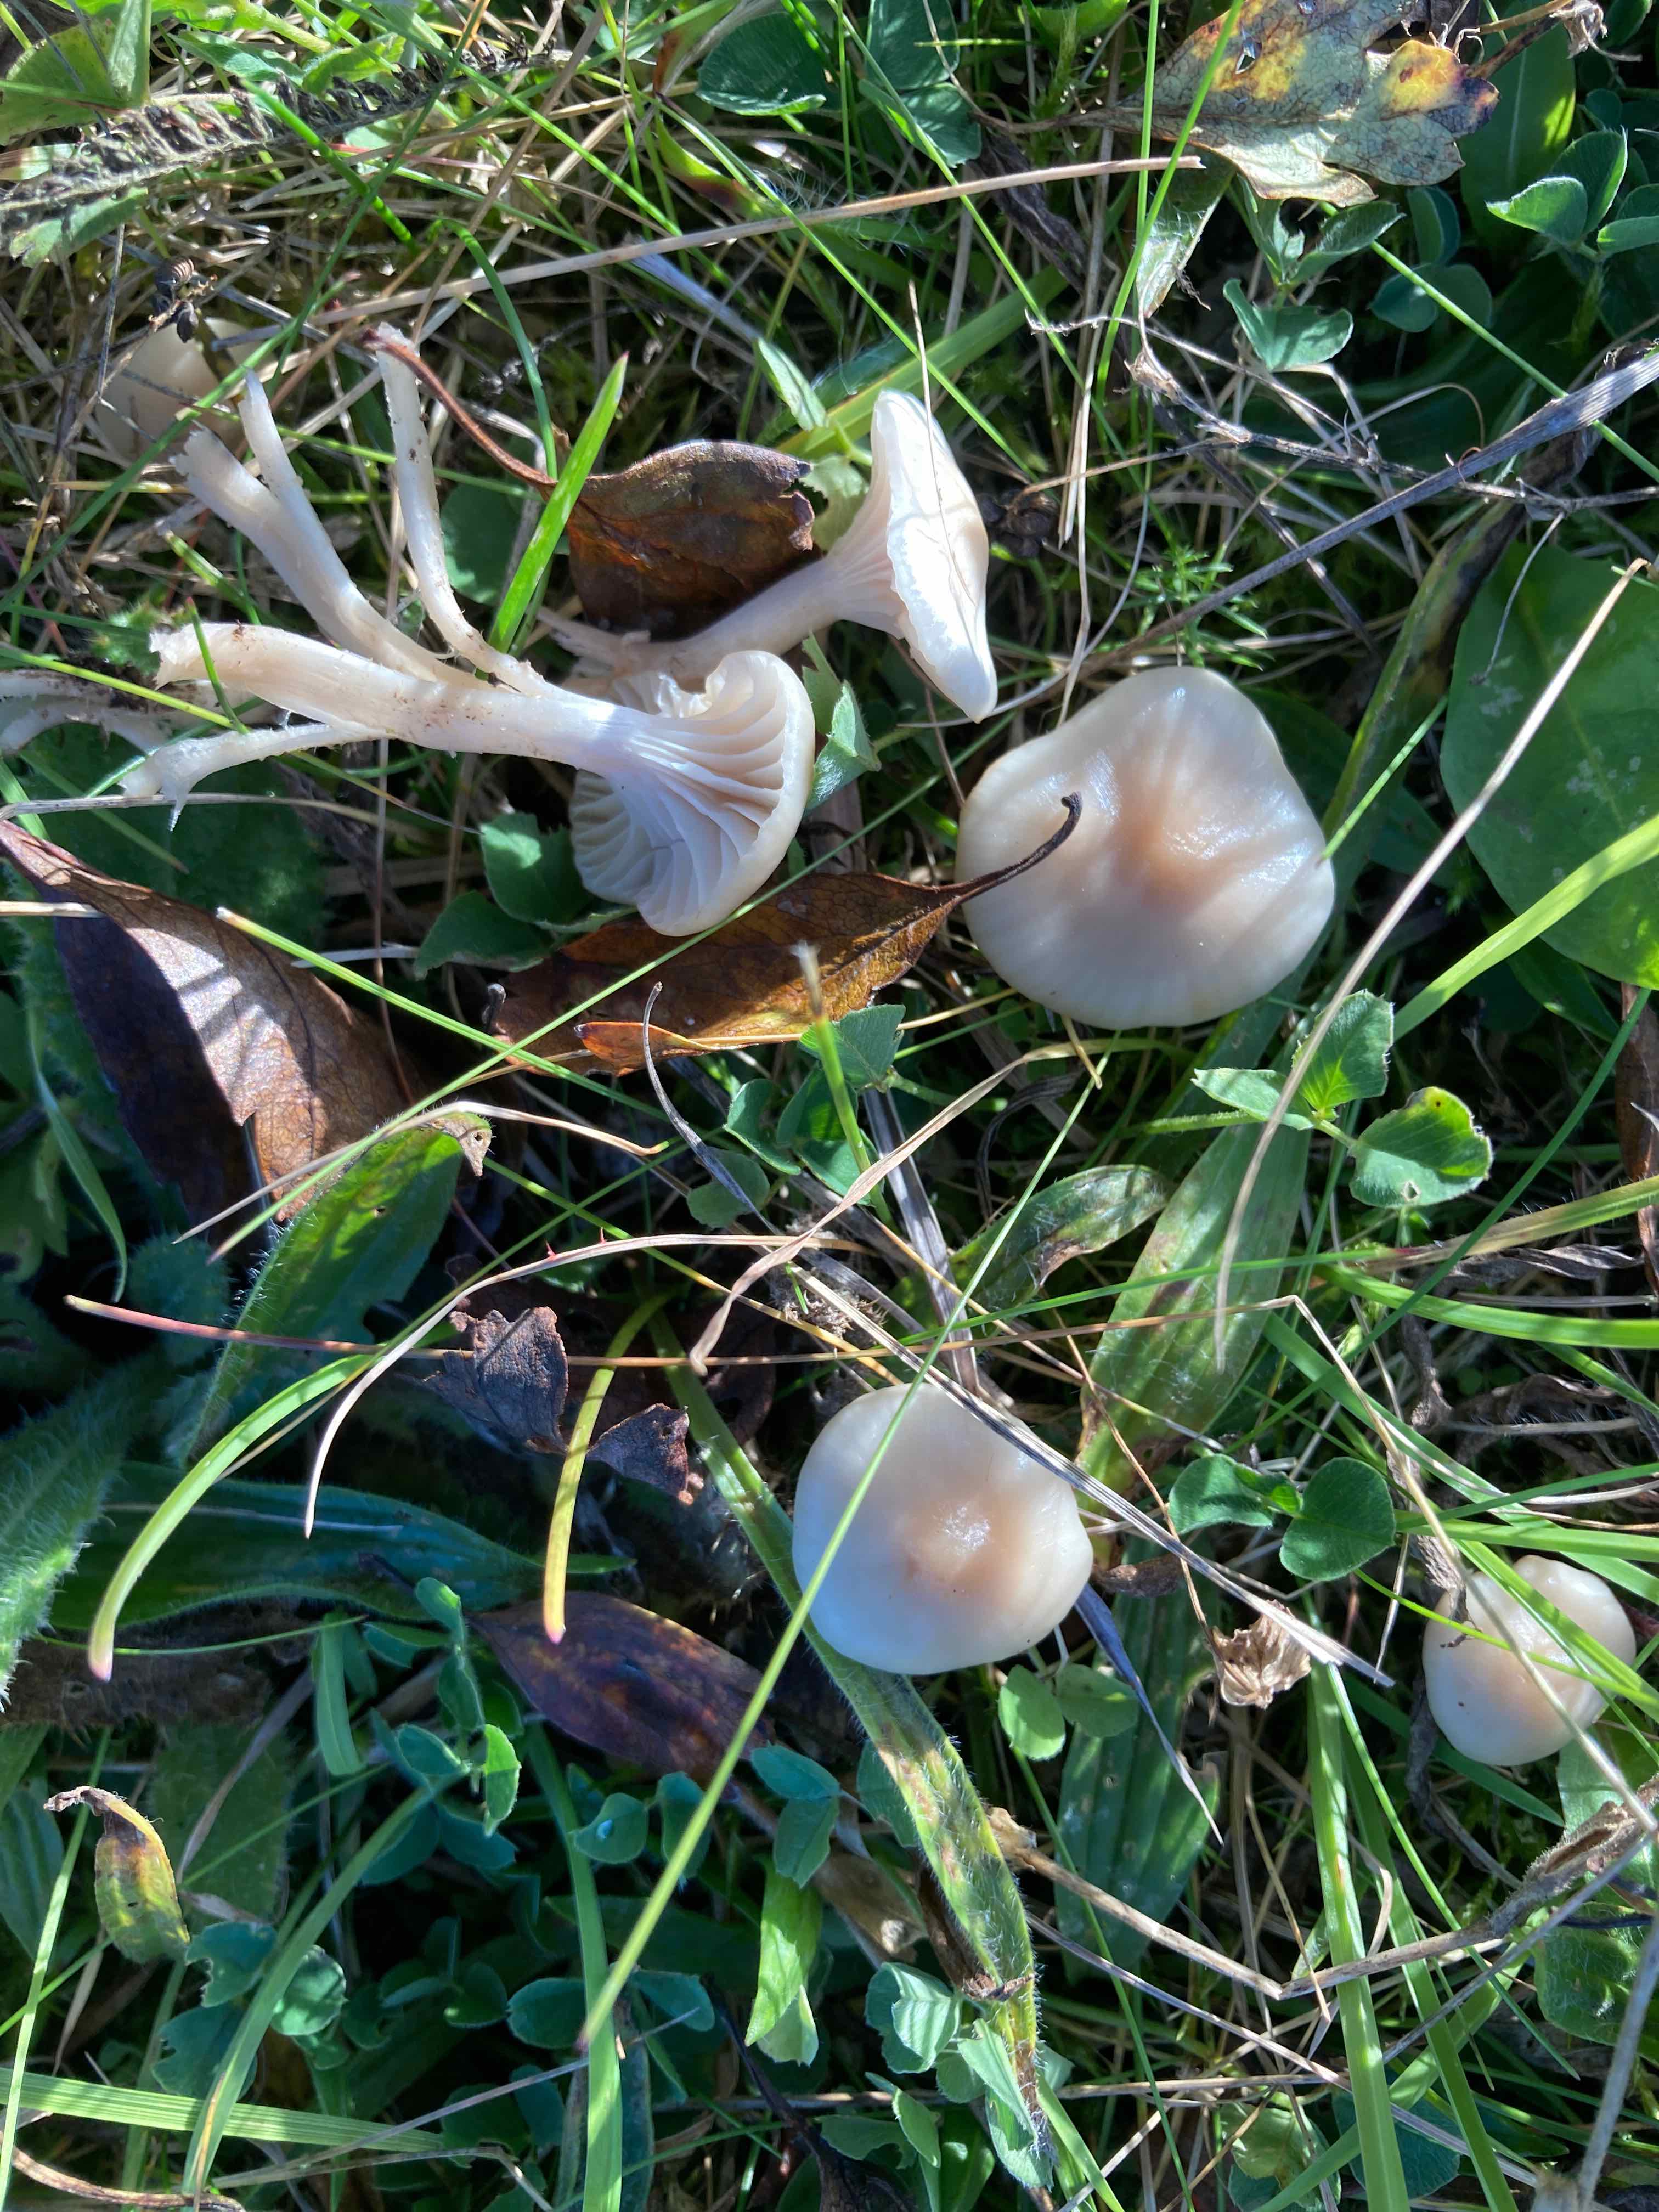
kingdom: Fungi
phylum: Basidiomycota
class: Agaricomycetes
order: Agaricales
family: Hygrophoraceae
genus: Cuphophyllus
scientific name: Cuphophyllus virgineus
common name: isabella-vokshat
